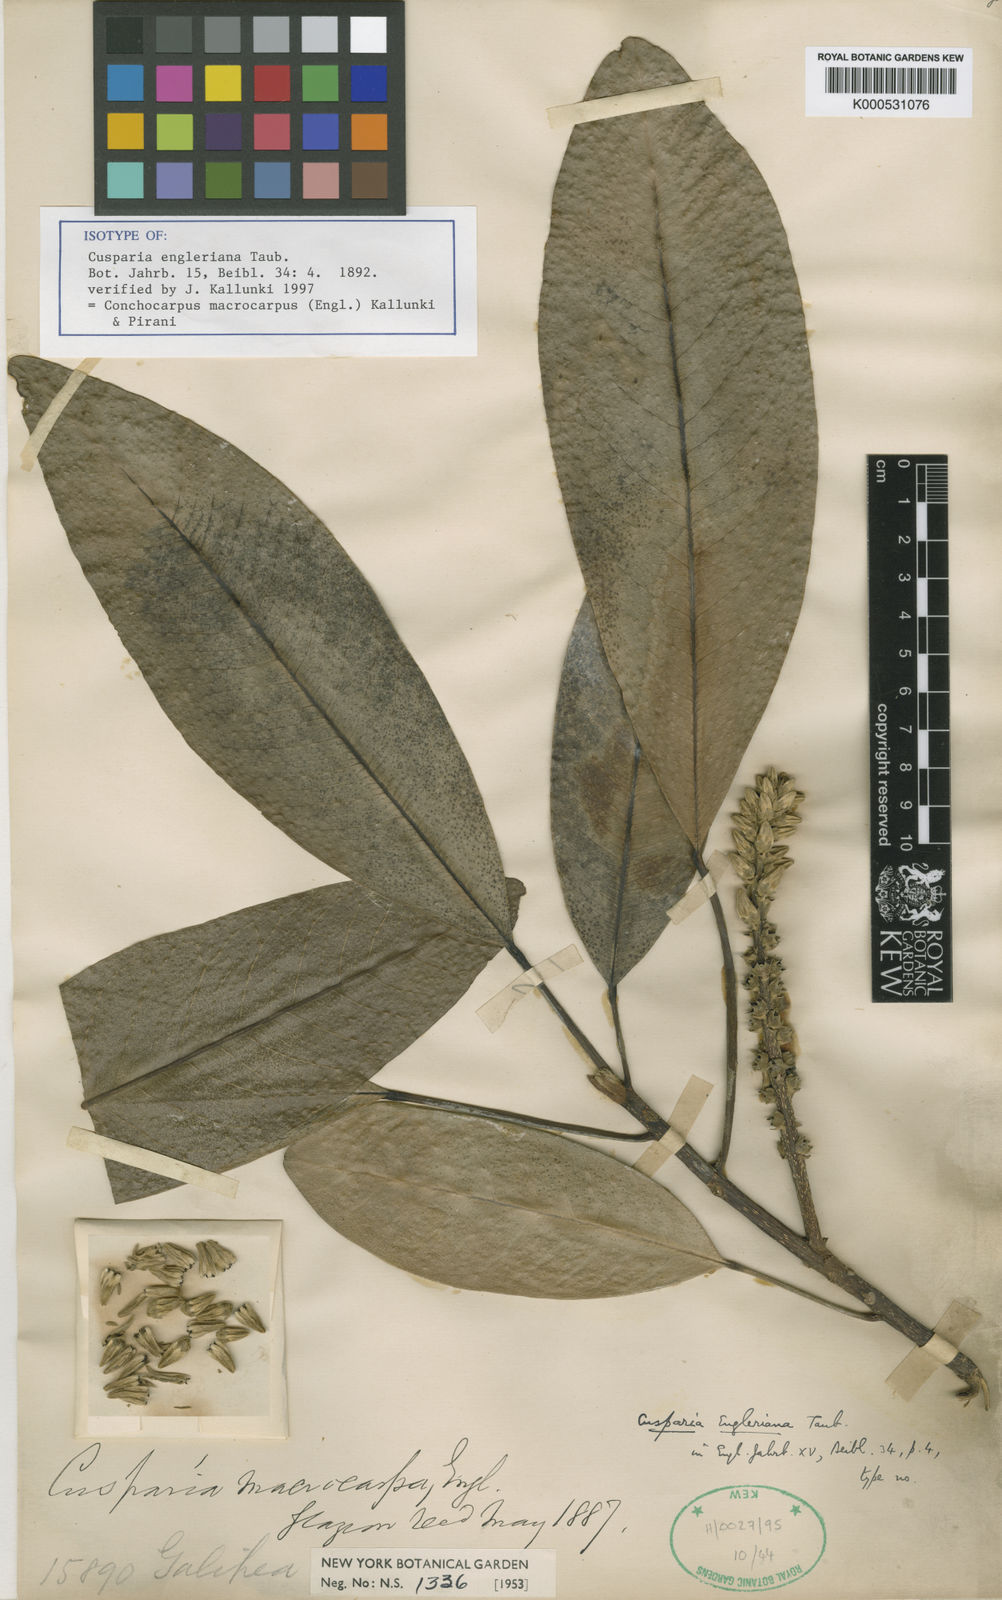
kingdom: Plantae
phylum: Tracheophyta
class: Magnoliopsida
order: Sapindales
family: Rutaceae
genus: Conchocarpus
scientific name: Conchocarpus macrocarpus
